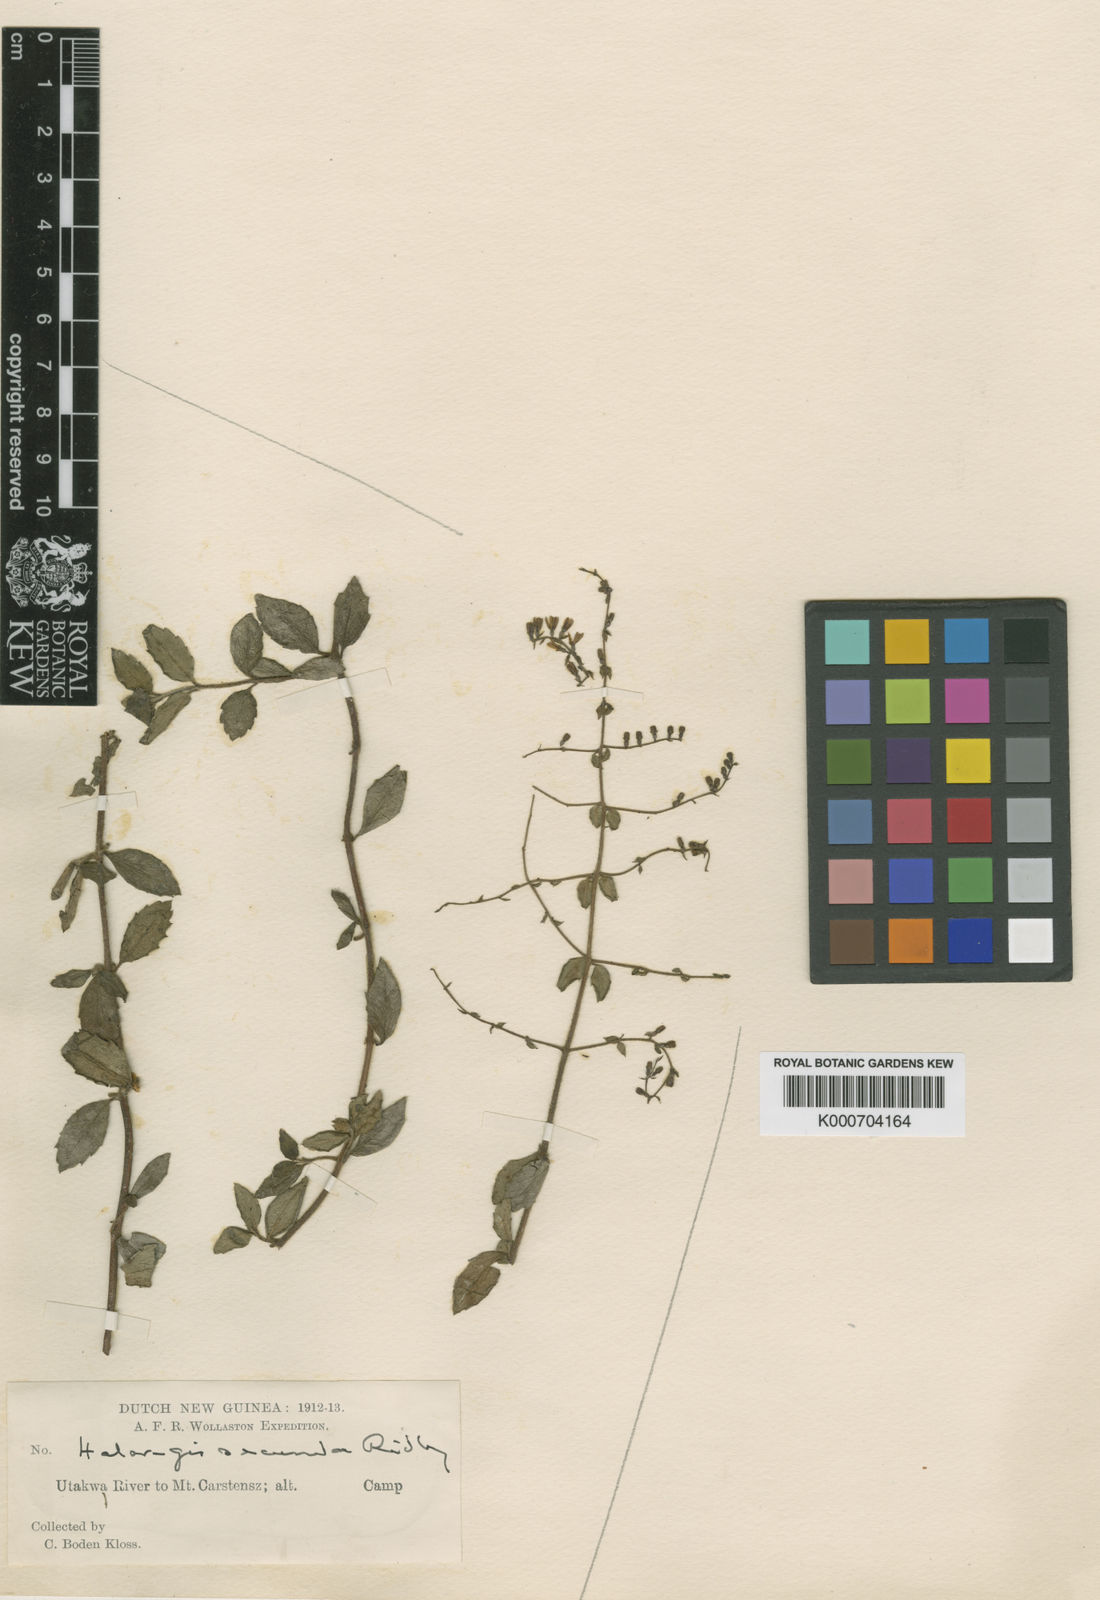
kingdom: Plantae
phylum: Tracheophyta
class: Magnoliopsida
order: Saxifragales
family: Haloragaceae
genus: Gonocarpus
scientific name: Gonocarpus
